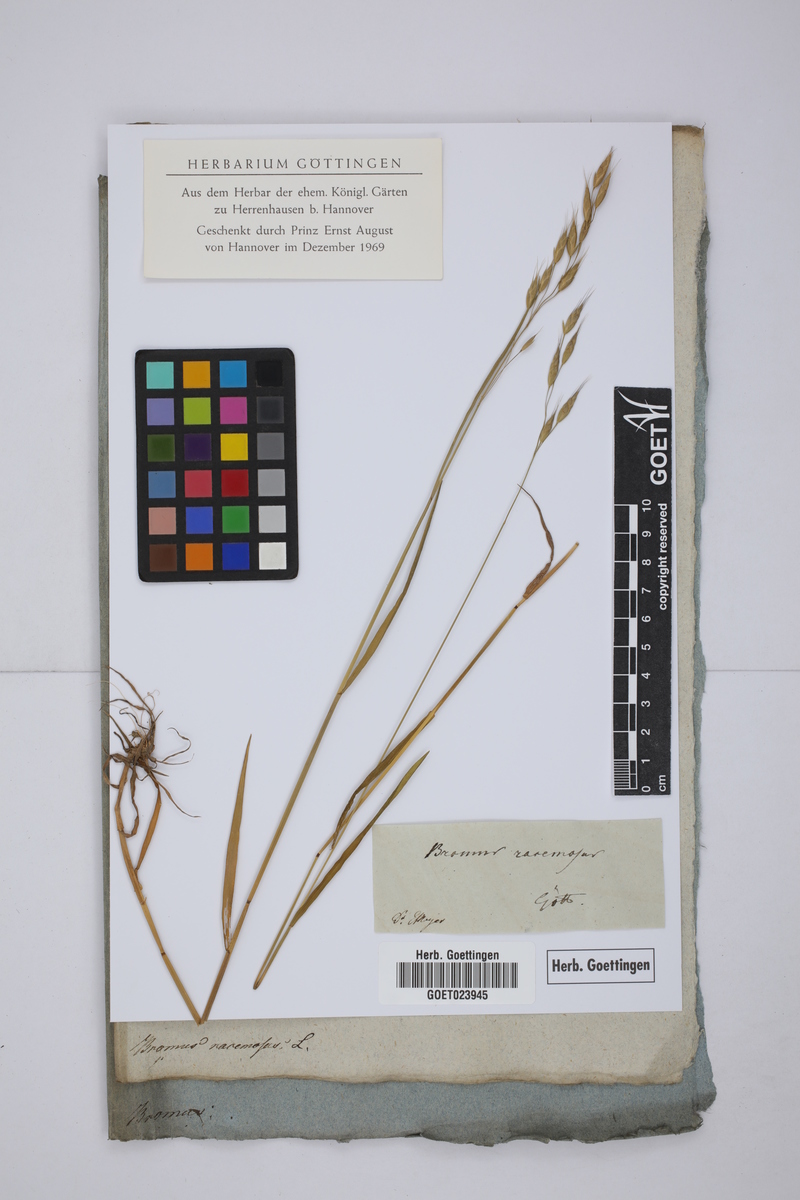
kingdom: Plantae
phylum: Tracheophyta
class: Liliopsida
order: Poales
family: Poaceae
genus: Bromus
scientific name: Bromus racemosus
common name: Bald brome
